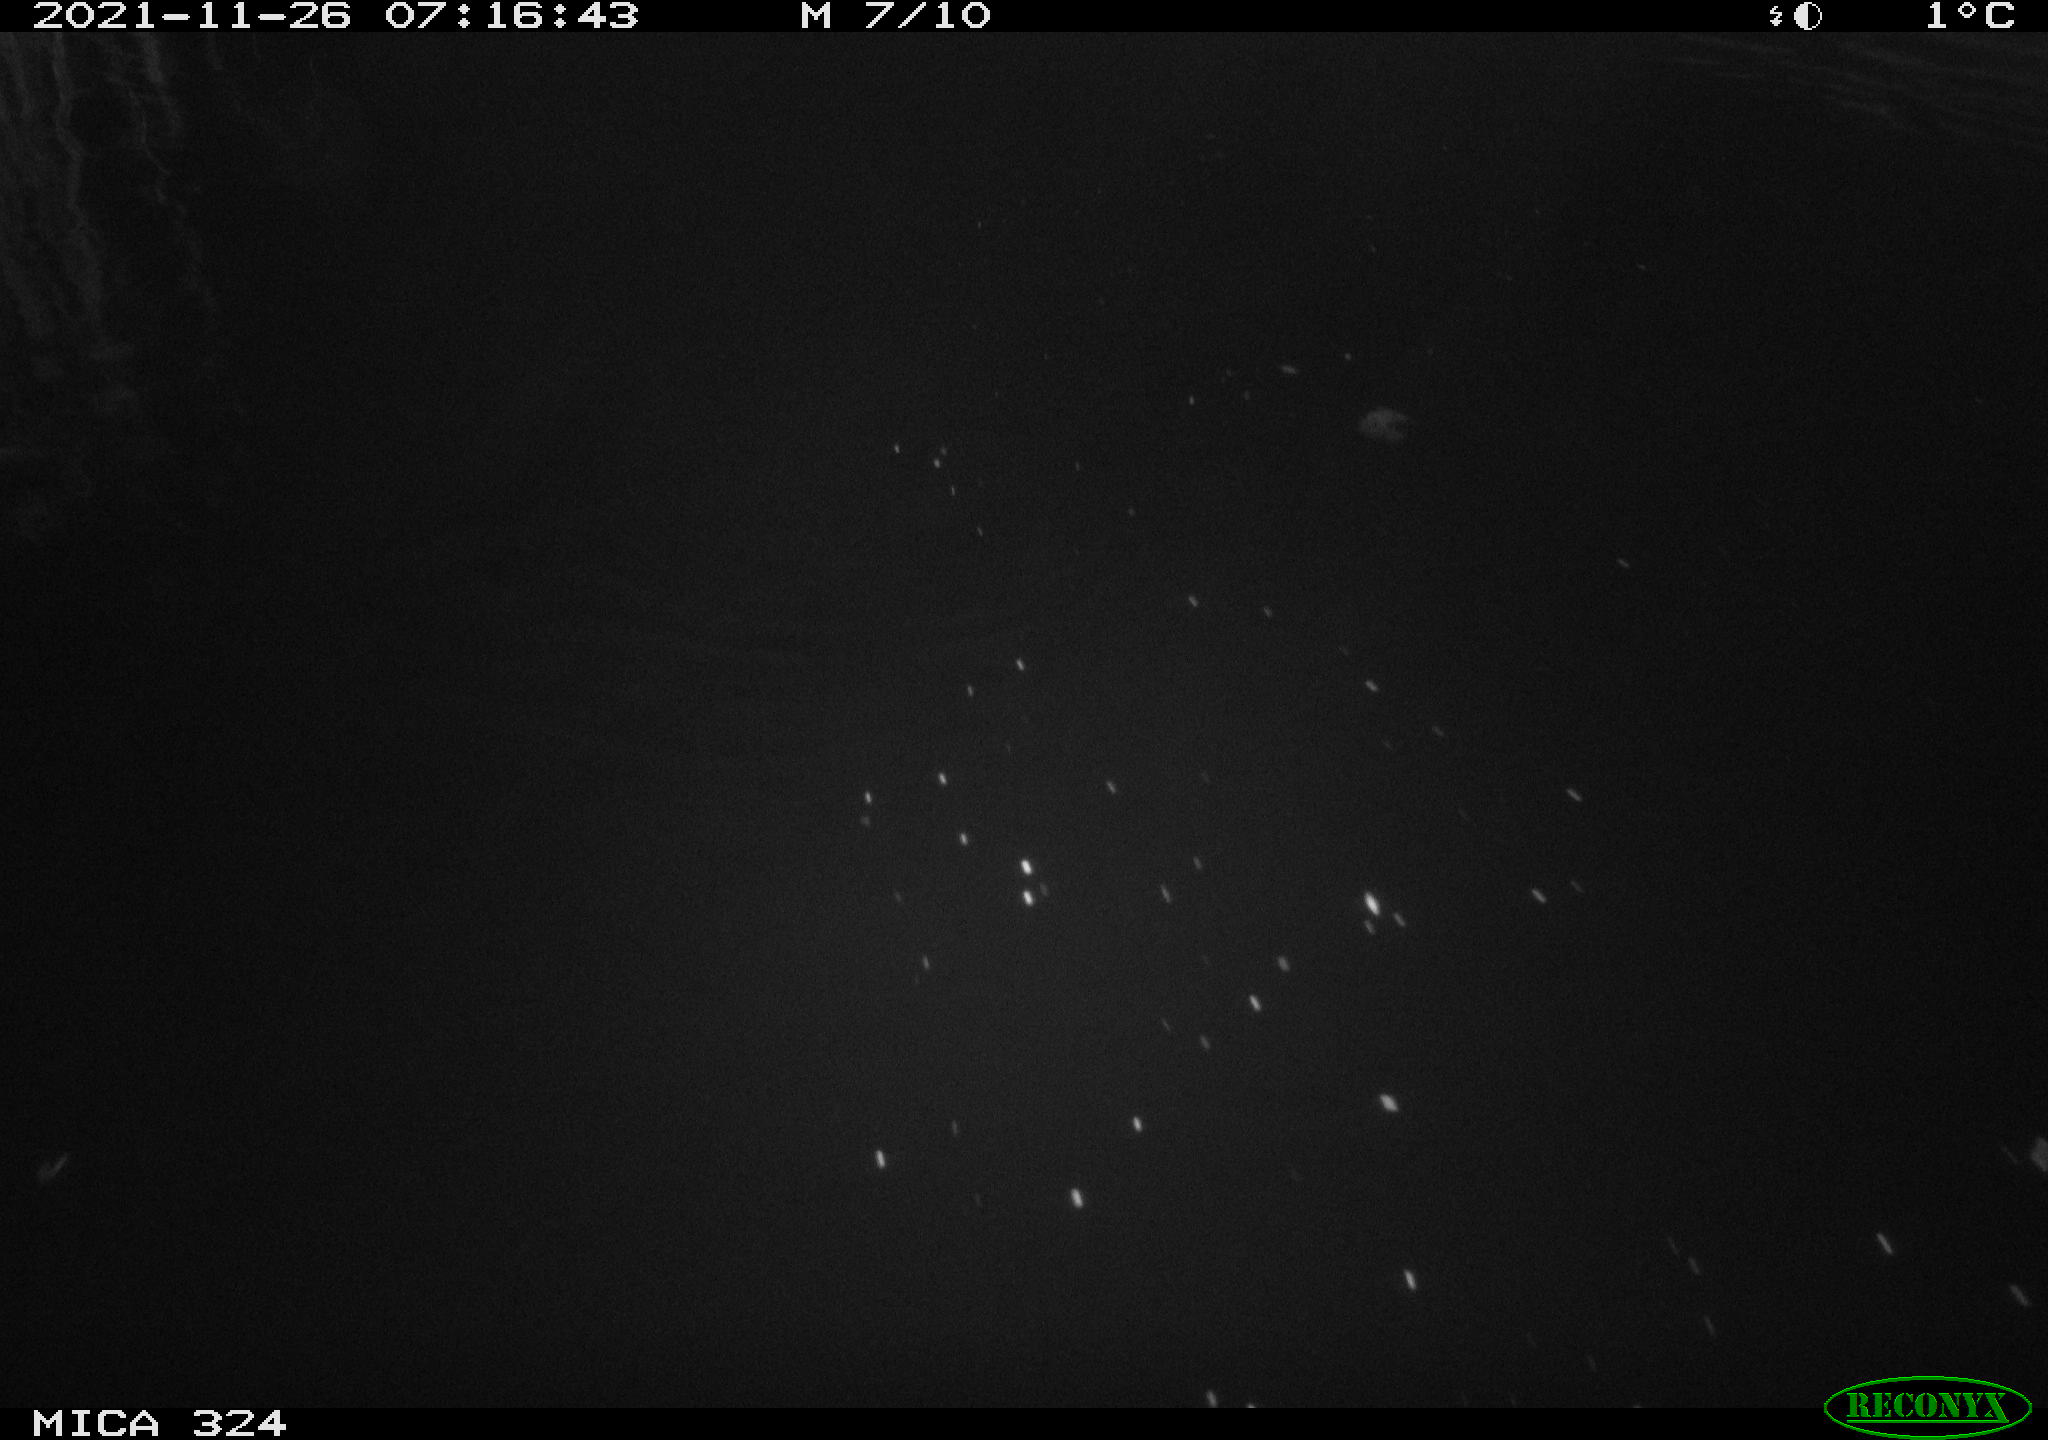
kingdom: Animalia
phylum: Chordata
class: Mammalia
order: Rodentia
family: Cricetidae
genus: Ondatra
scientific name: Ondatra zibethicus
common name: Muskrat
